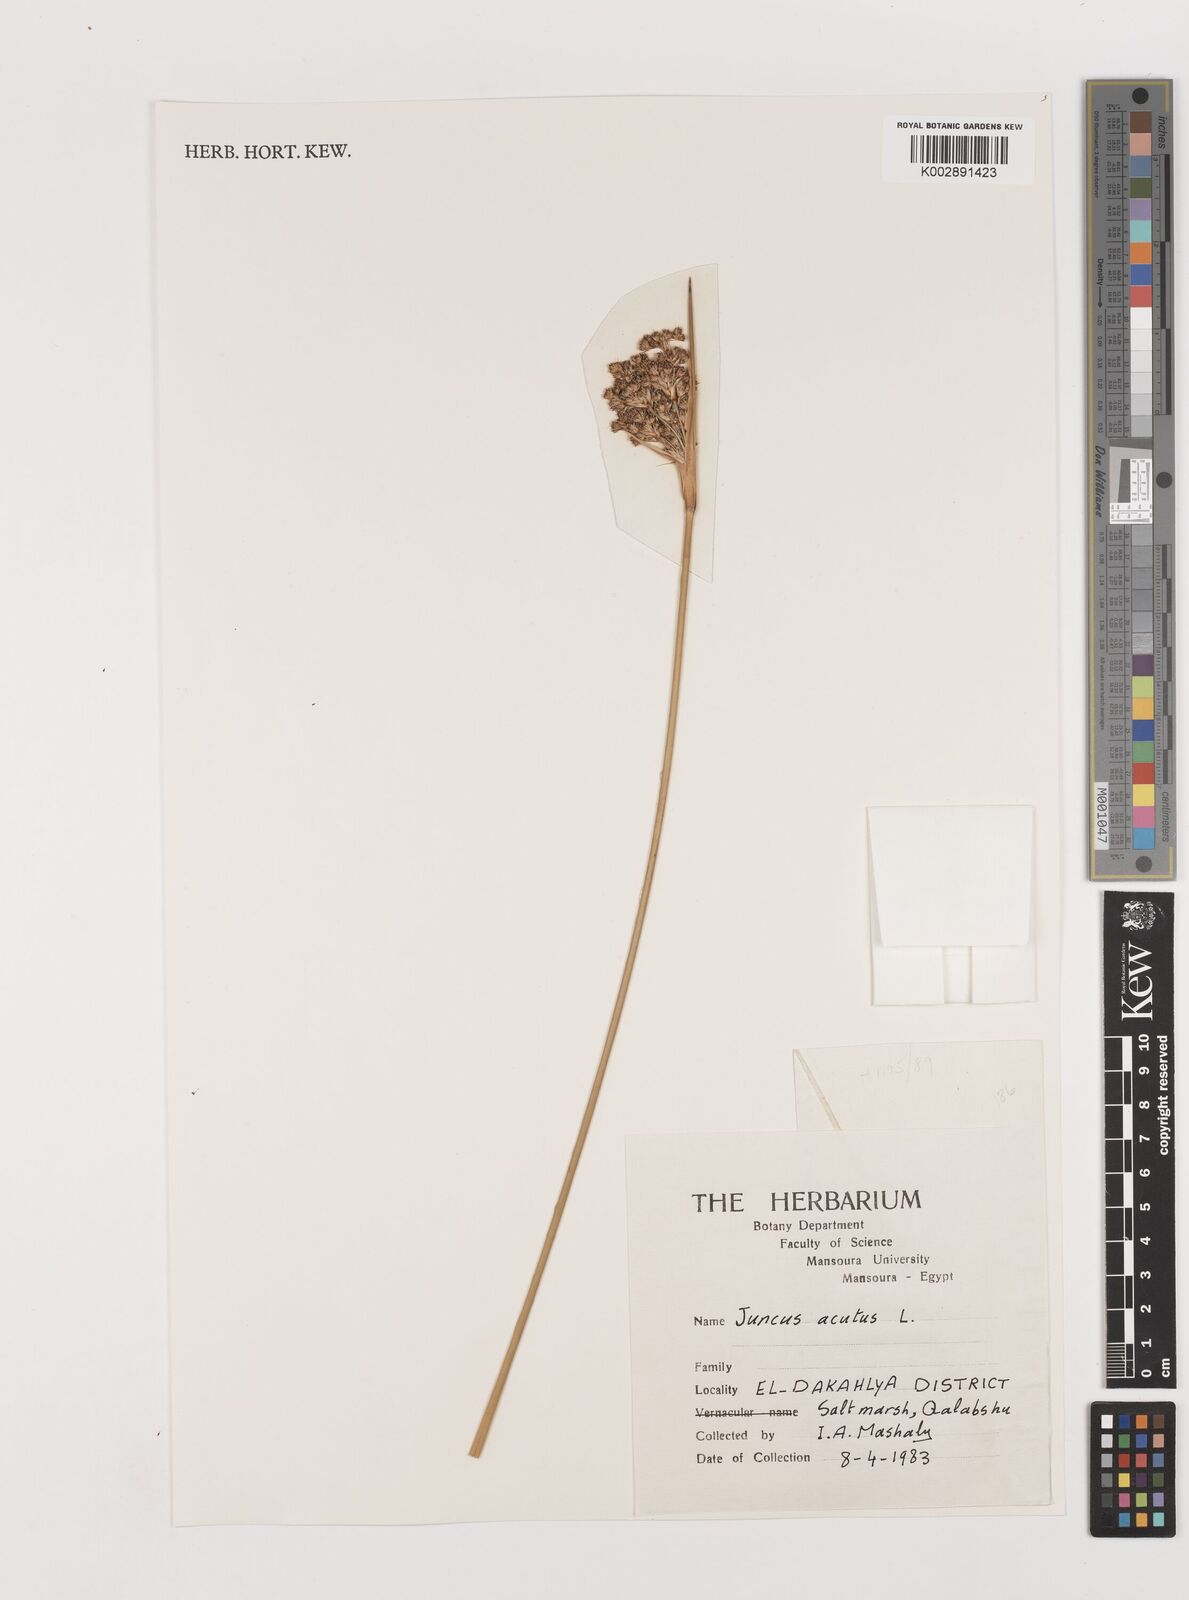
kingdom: Plantae
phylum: Tracheophyta
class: Liliopsida
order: Poales
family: Juncaceae
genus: Juncus
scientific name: Juncus acutus
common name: Sharp rush
